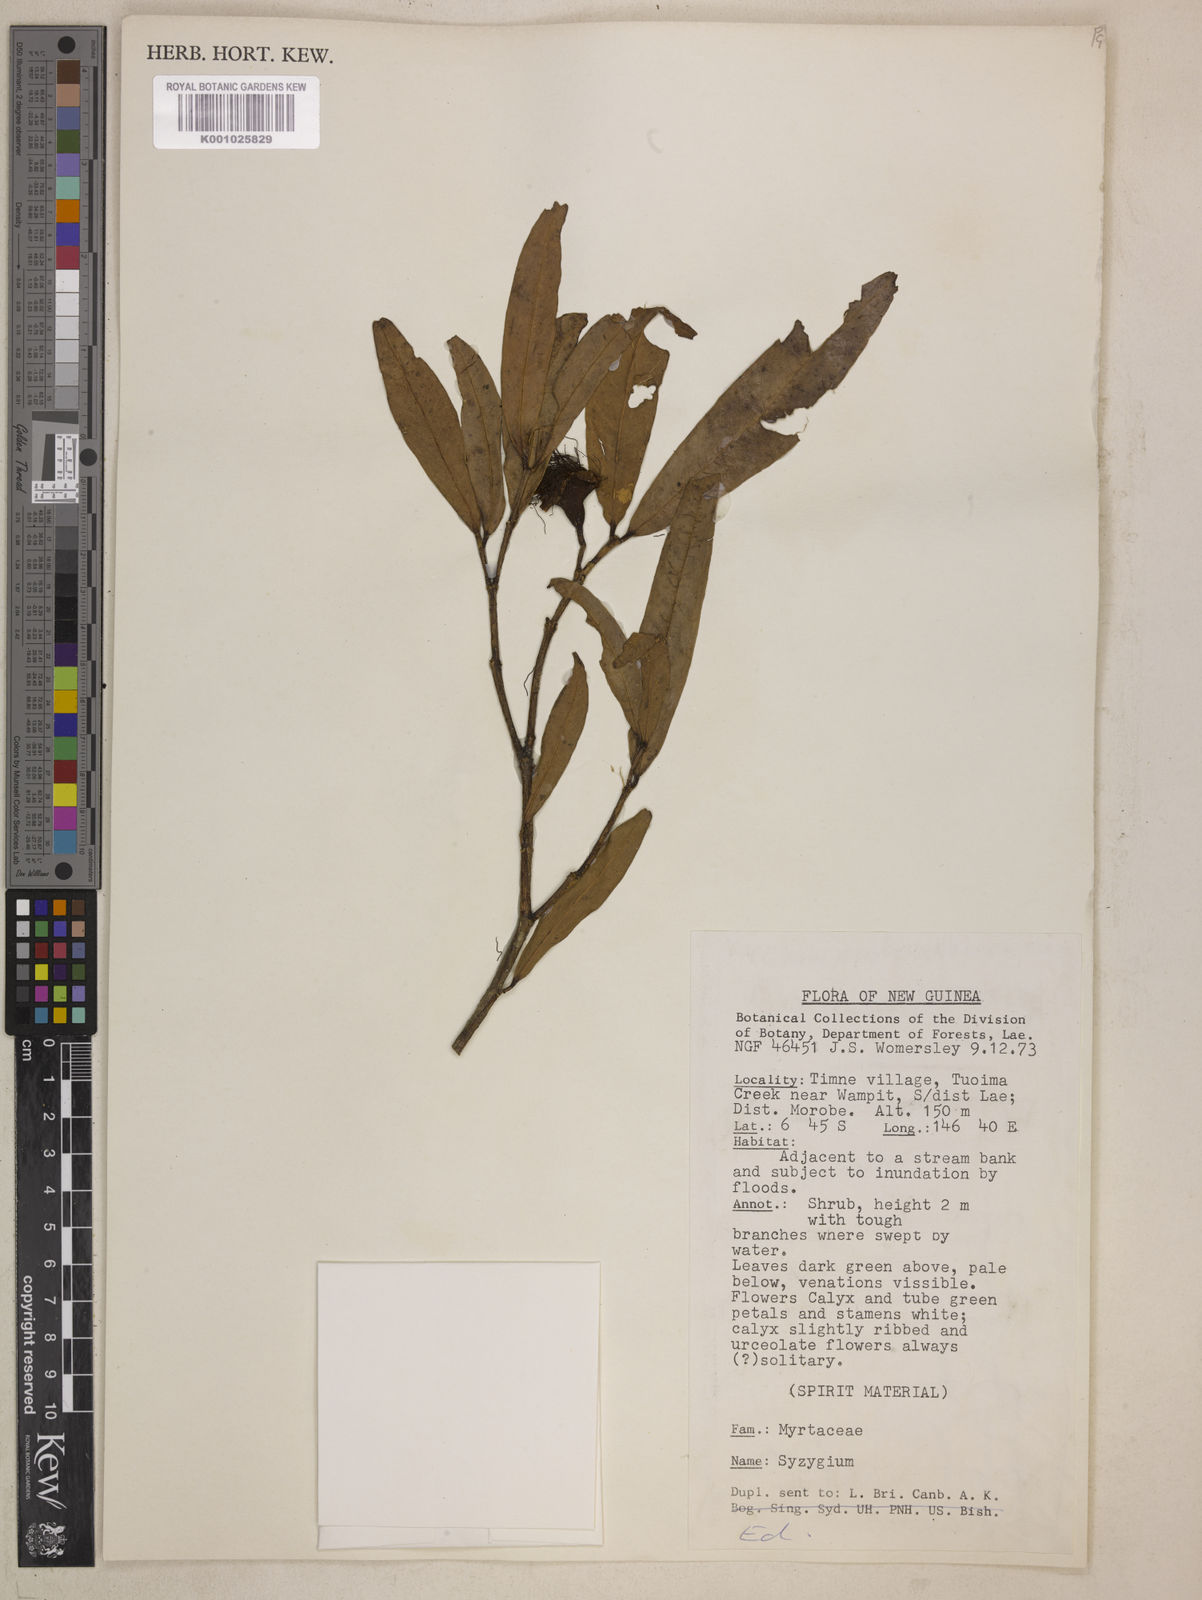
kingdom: Plantae
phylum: Tracheophyta
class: Magnoliopsida
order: Myrtales
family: Myrtaceae
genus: Syzygium
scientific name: Syzygium trachyanthum
